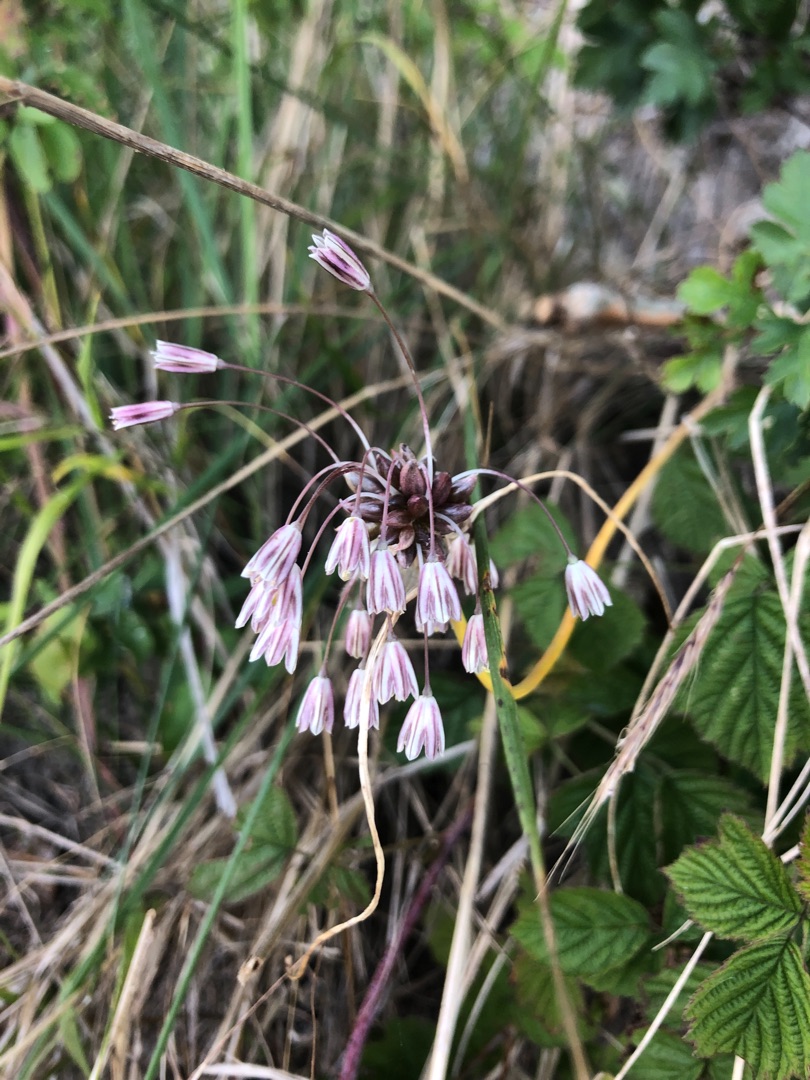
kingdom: Plantae
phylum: Tracheophyta
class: Liliopsida
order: Asparagales
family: Amaryllidaceae
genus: Allium
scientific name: Allium oleraceum
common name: Vild løg
